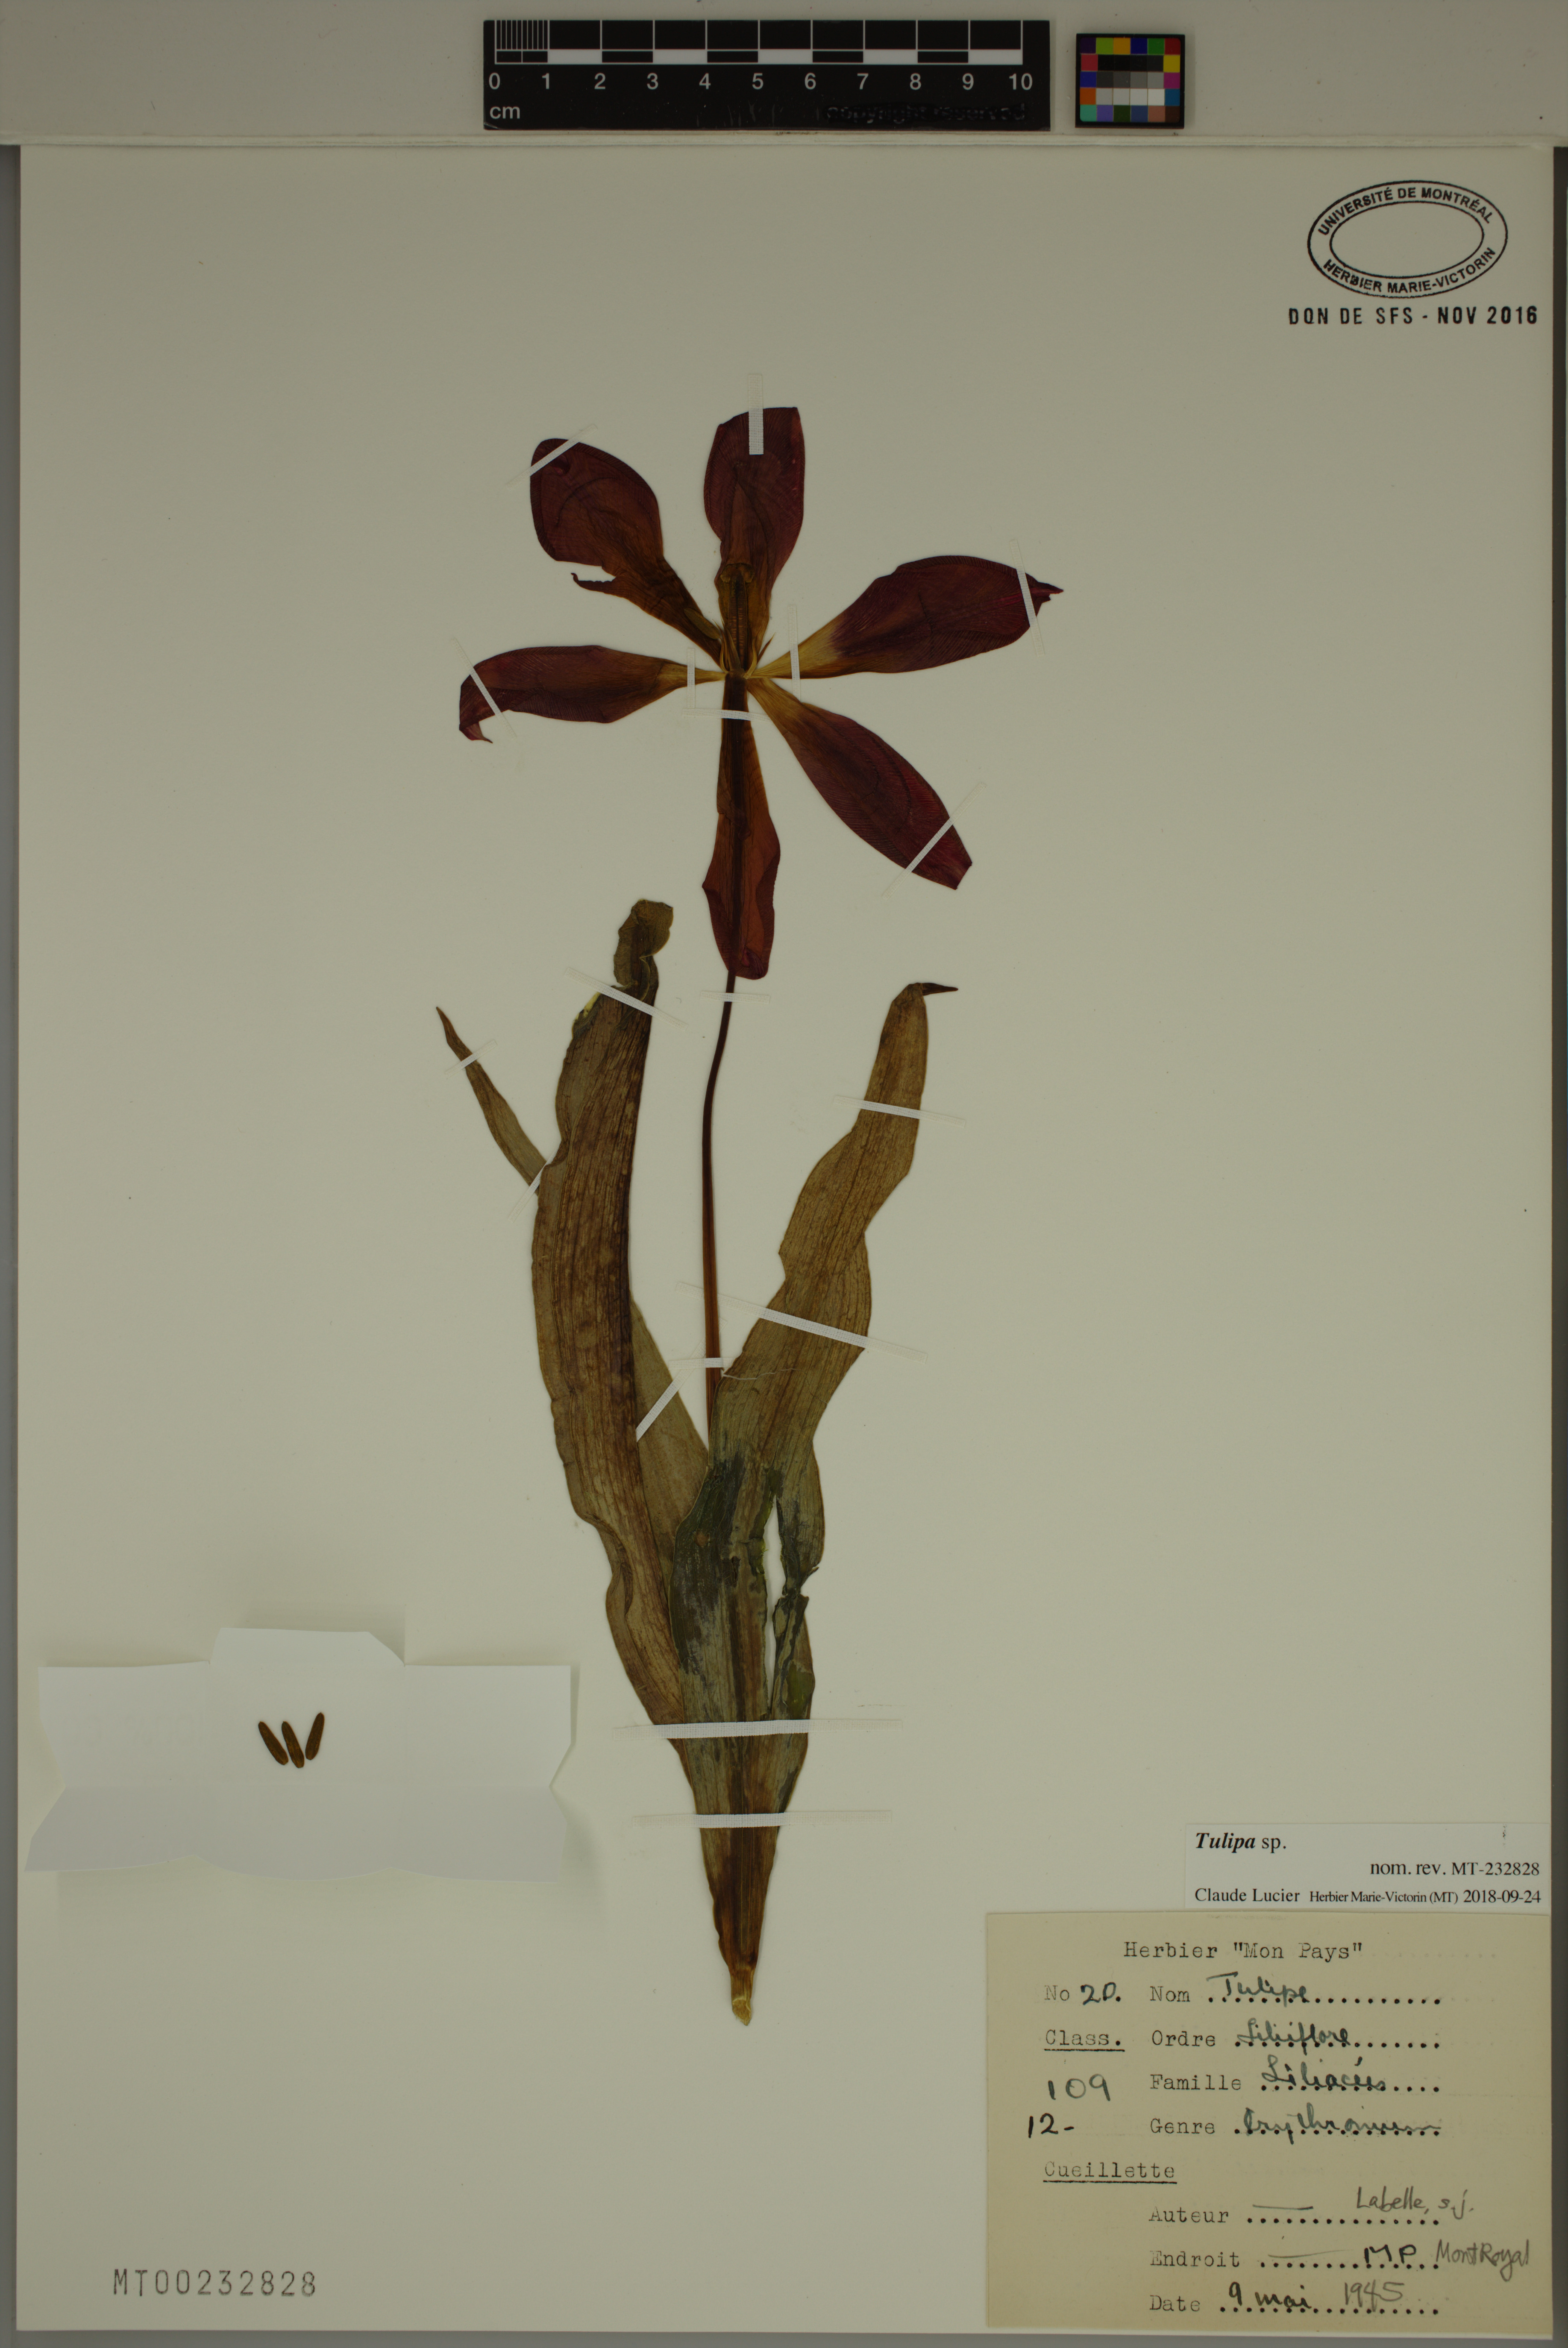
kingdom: Plantae
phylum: Tracheophyta
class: Liliopsida
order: Liliales
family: Liliaceae
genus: Tulipa
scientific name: Tulipa
